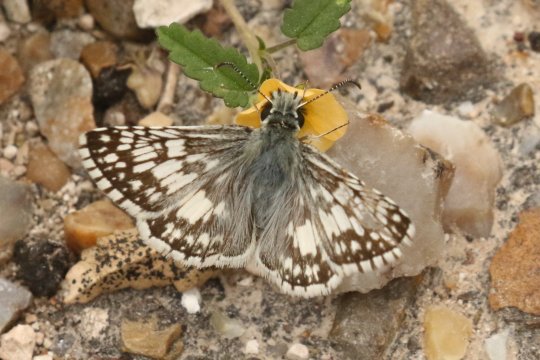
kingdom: Animalia
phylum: Arthropoda
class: Insecta
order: Lepidoptera
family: Hesperiidae
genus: Pyrgus
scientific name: Pyrgus communis
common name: White Checkered-Skipper
